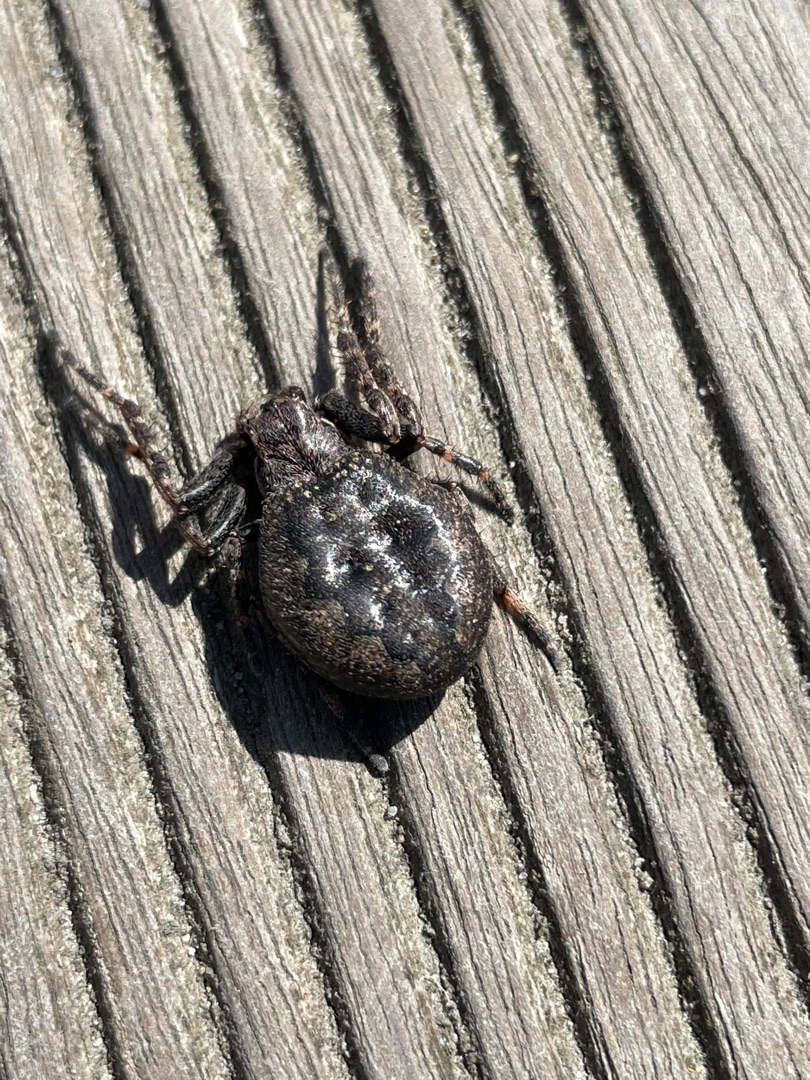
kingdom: Animalia
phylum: Arthropoda
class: Arachnida
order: Araneae
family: Araneidae
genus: Nuctenea
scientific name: Nuctenea umbratica
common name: Flad hjulspinder
